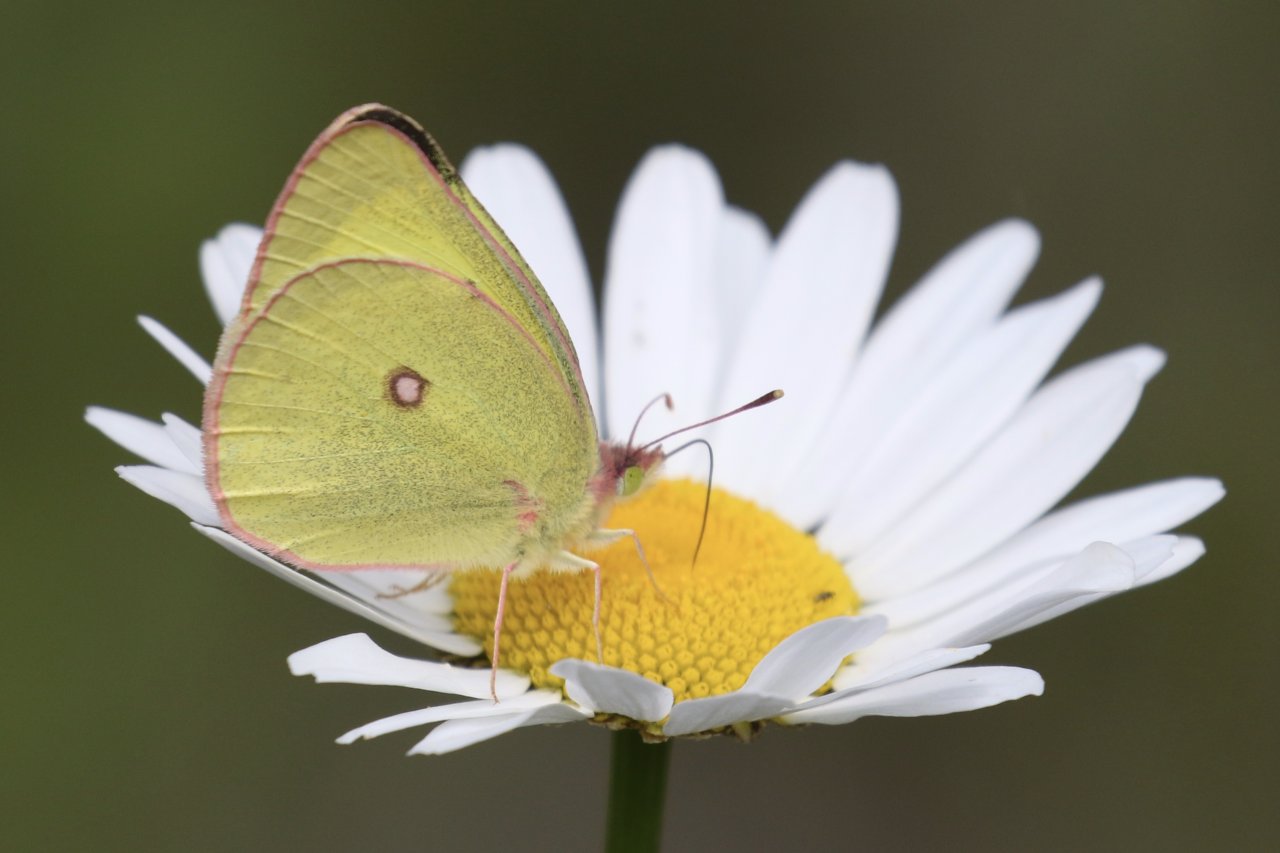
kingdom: Animalia
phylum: Arthropoda
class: Insecta
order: Lepidoptera
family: Pieridae
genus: Colias
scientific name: Colias interior
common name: Pink-edged Sulphur
